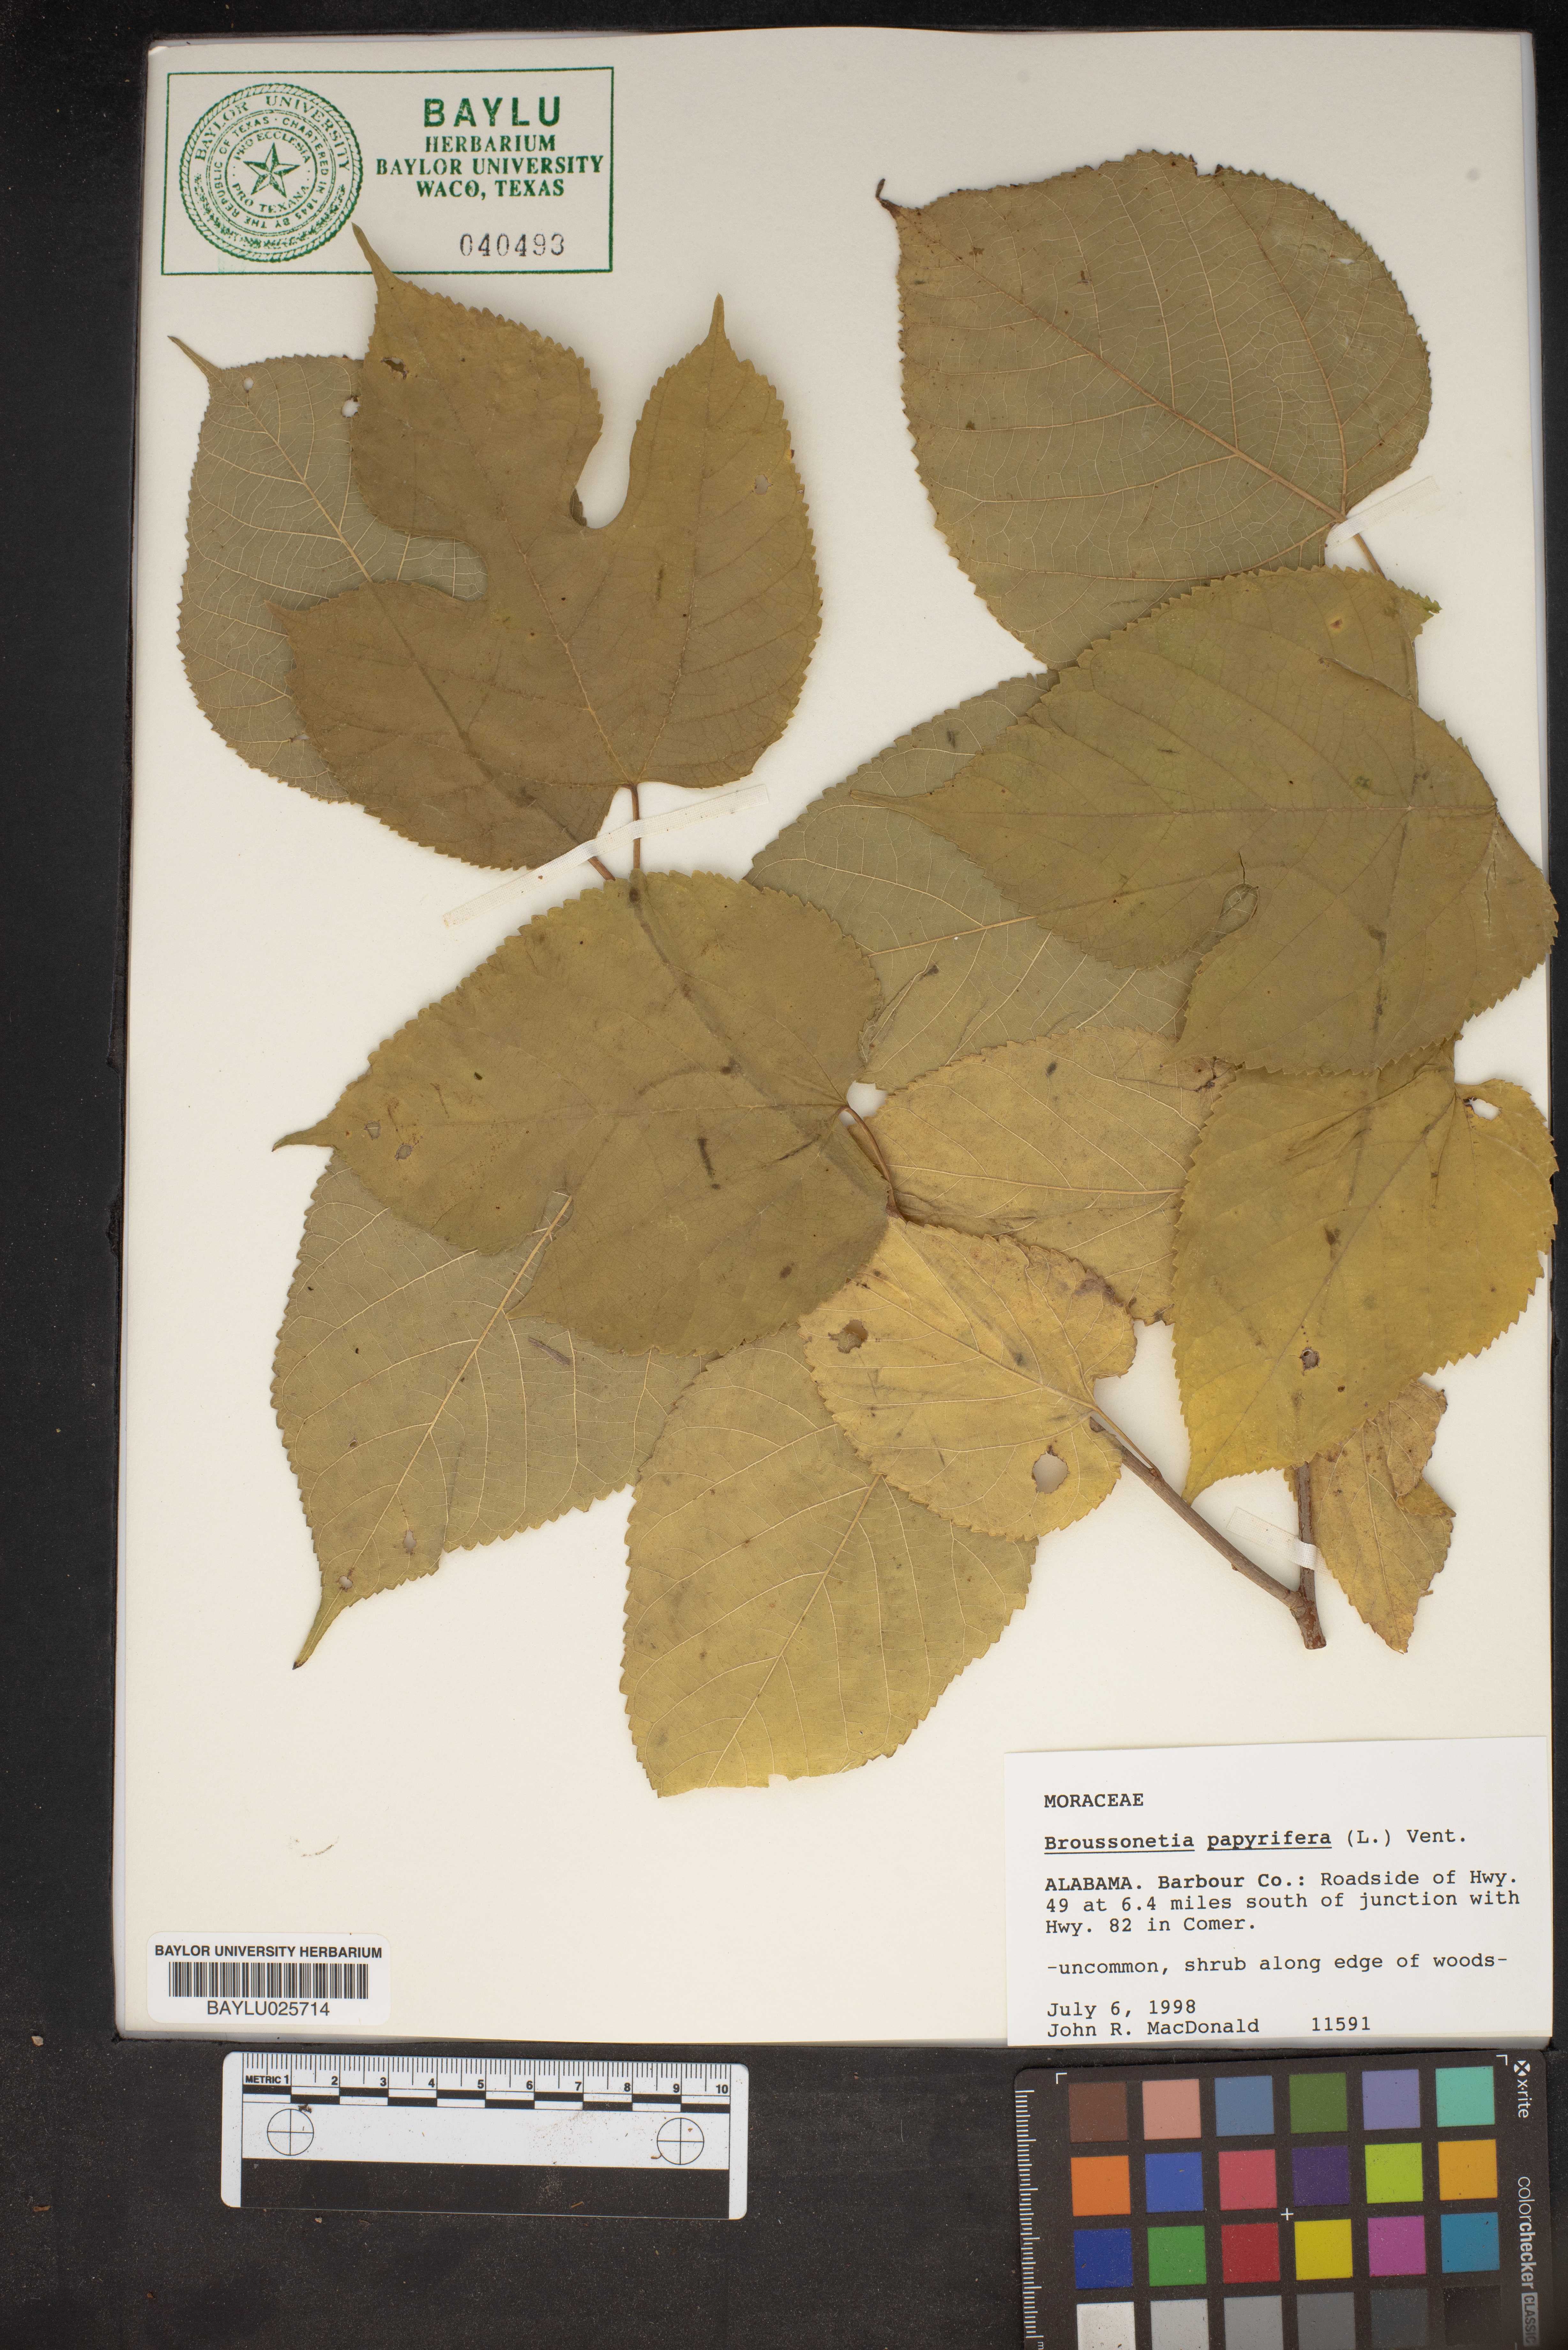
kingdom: Plantae
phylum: Tracheophyta
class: Magnoliopsida
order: Rosales
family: Moraceae
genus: Broussonetia
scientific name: Broussonetia papyrifera
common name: Paper mulberry
